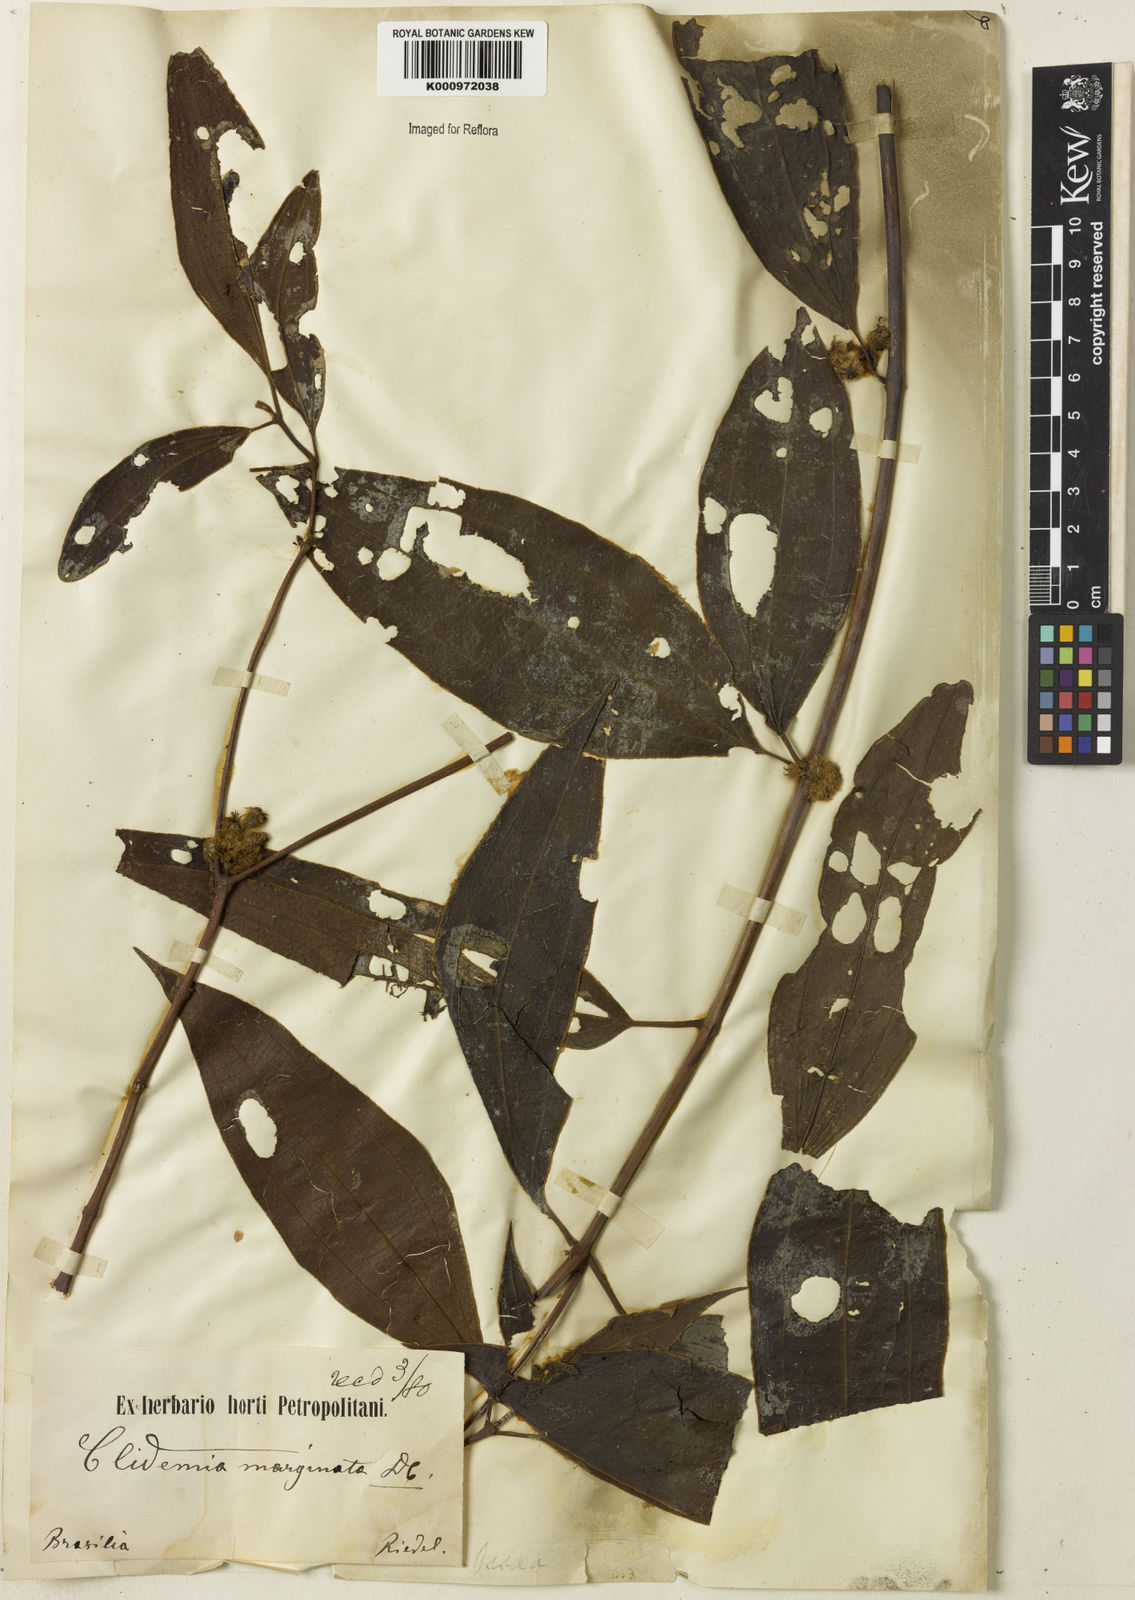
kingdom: Plantae
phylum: Tracheophyta
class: Magnoliopsida
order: Myrtales
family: Melastomataceae
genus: Miconia
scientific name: Miconia leamarginata
